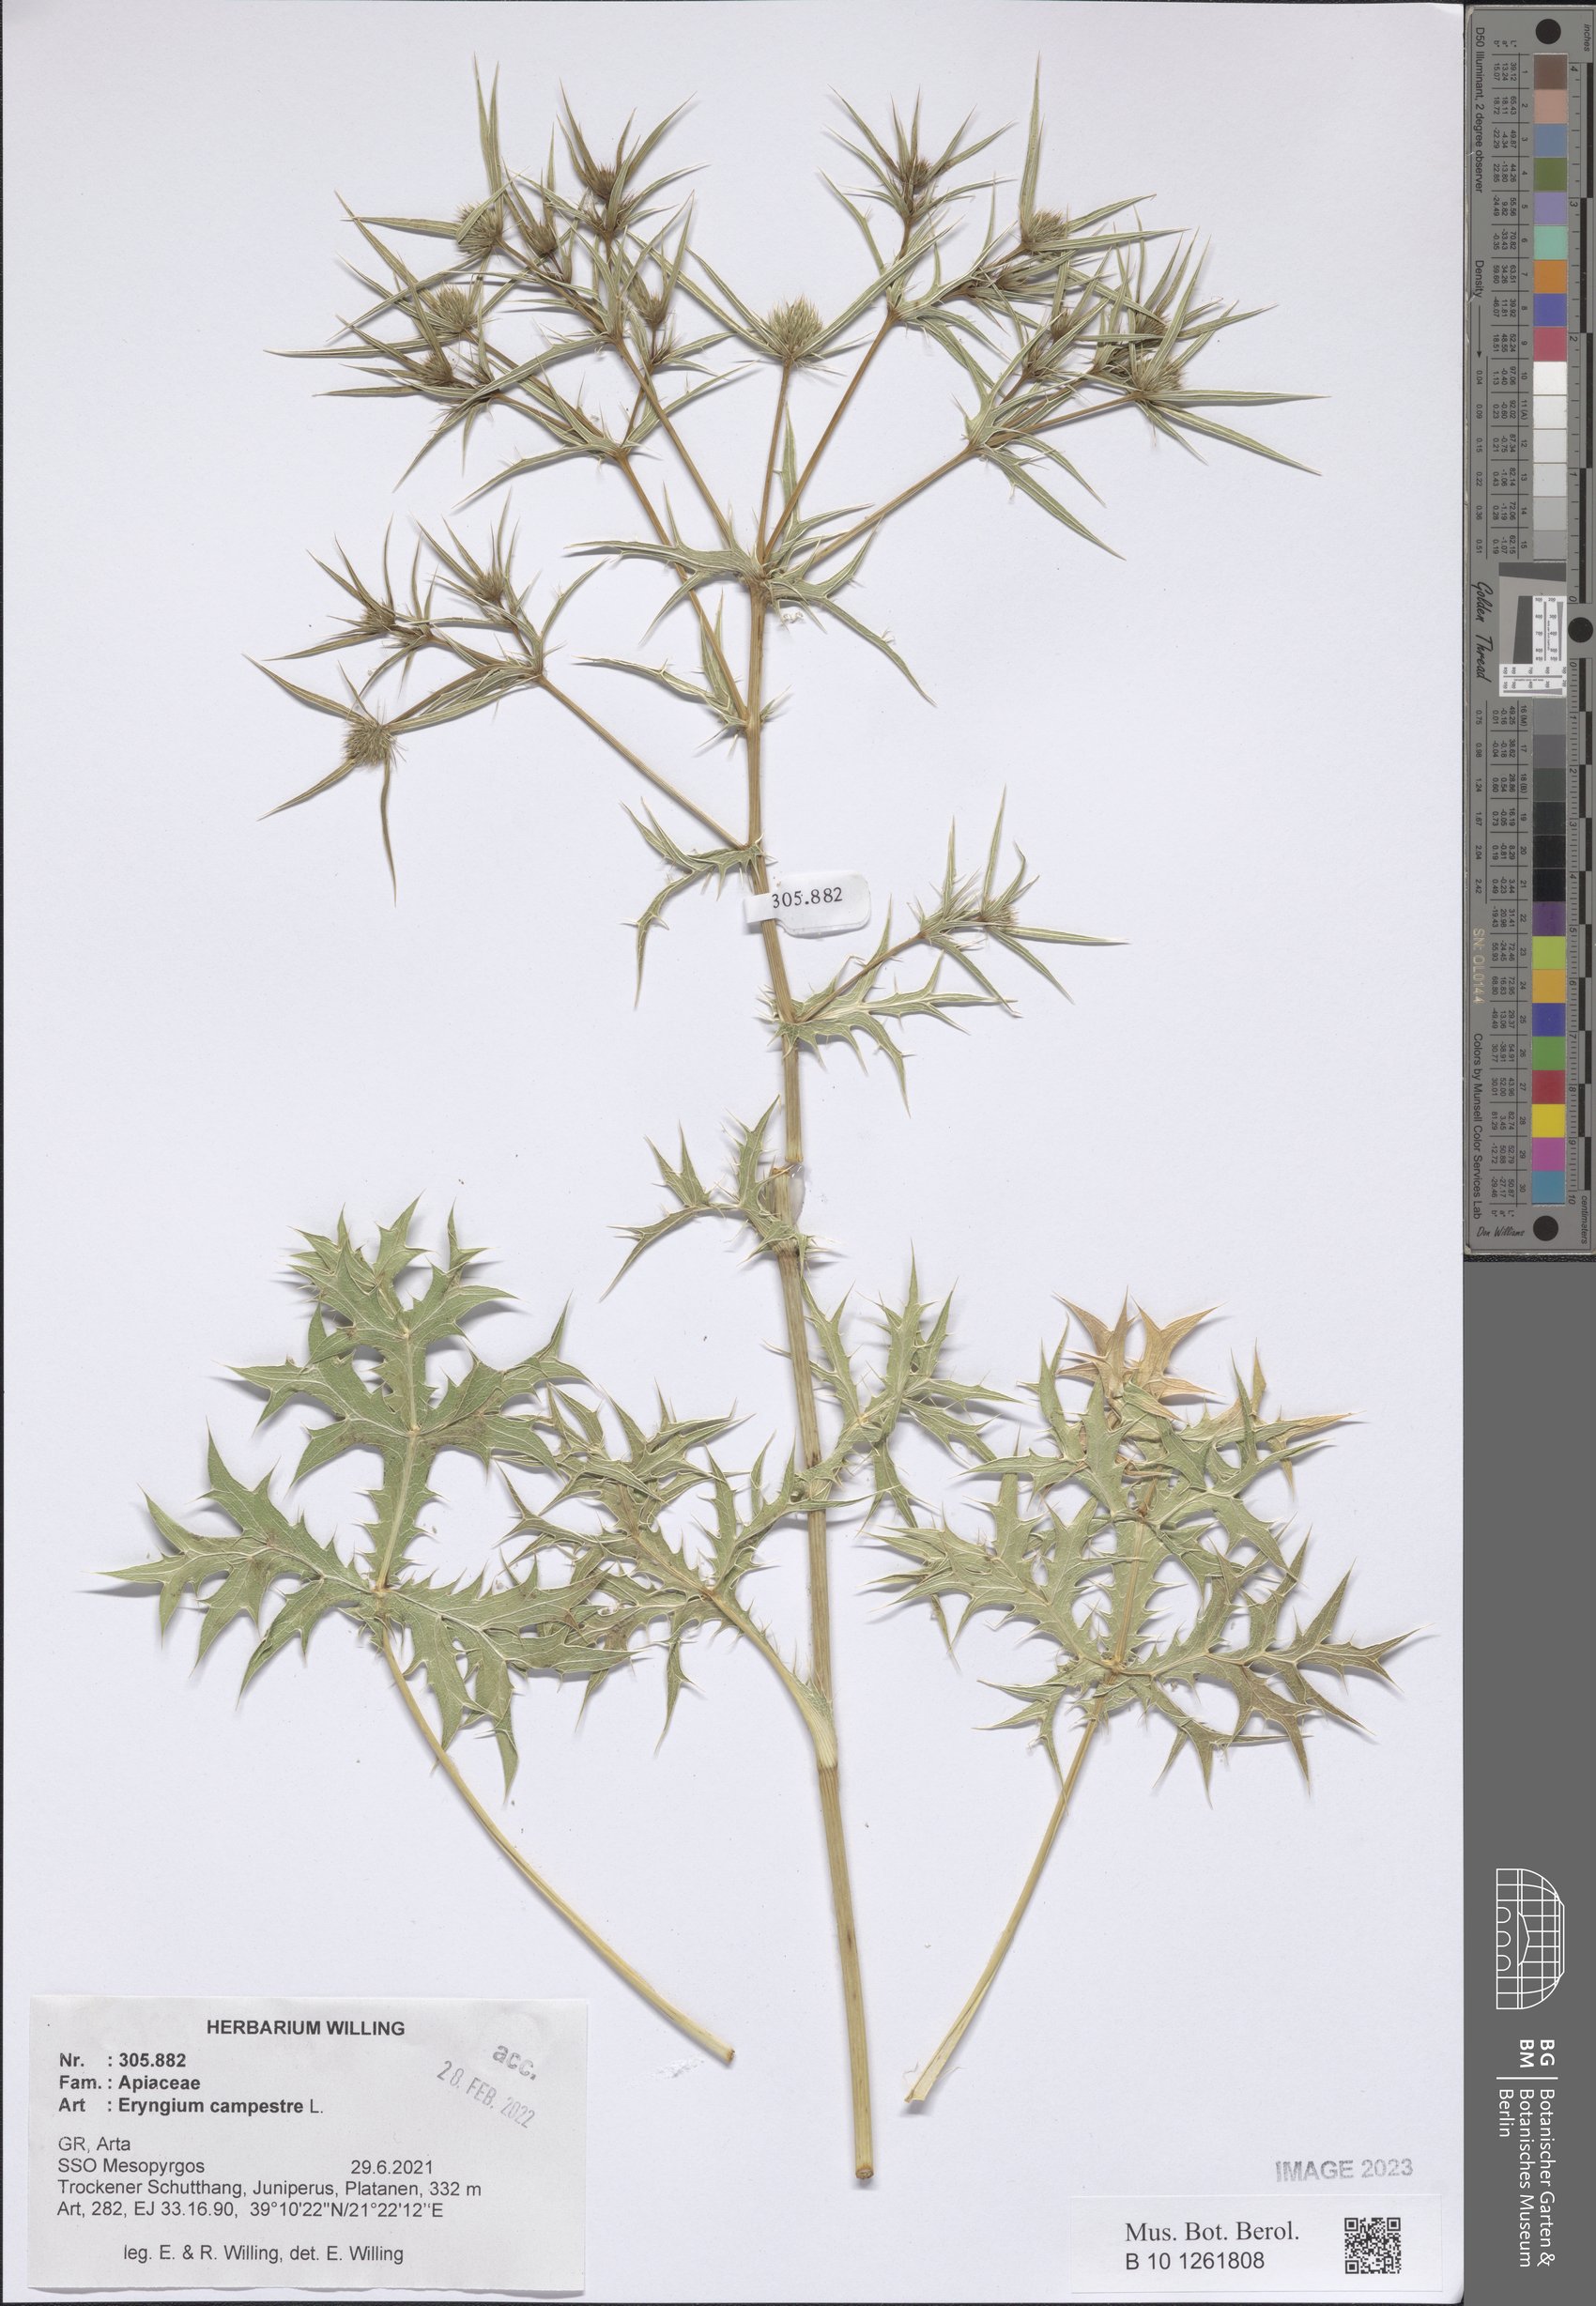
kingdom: Plantae
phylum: Tracheophyta
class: Magnoliopsida
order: Apiales
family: Apiaceae
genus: Eryngium
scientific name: Eryngium campestre
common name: Field eryngo
